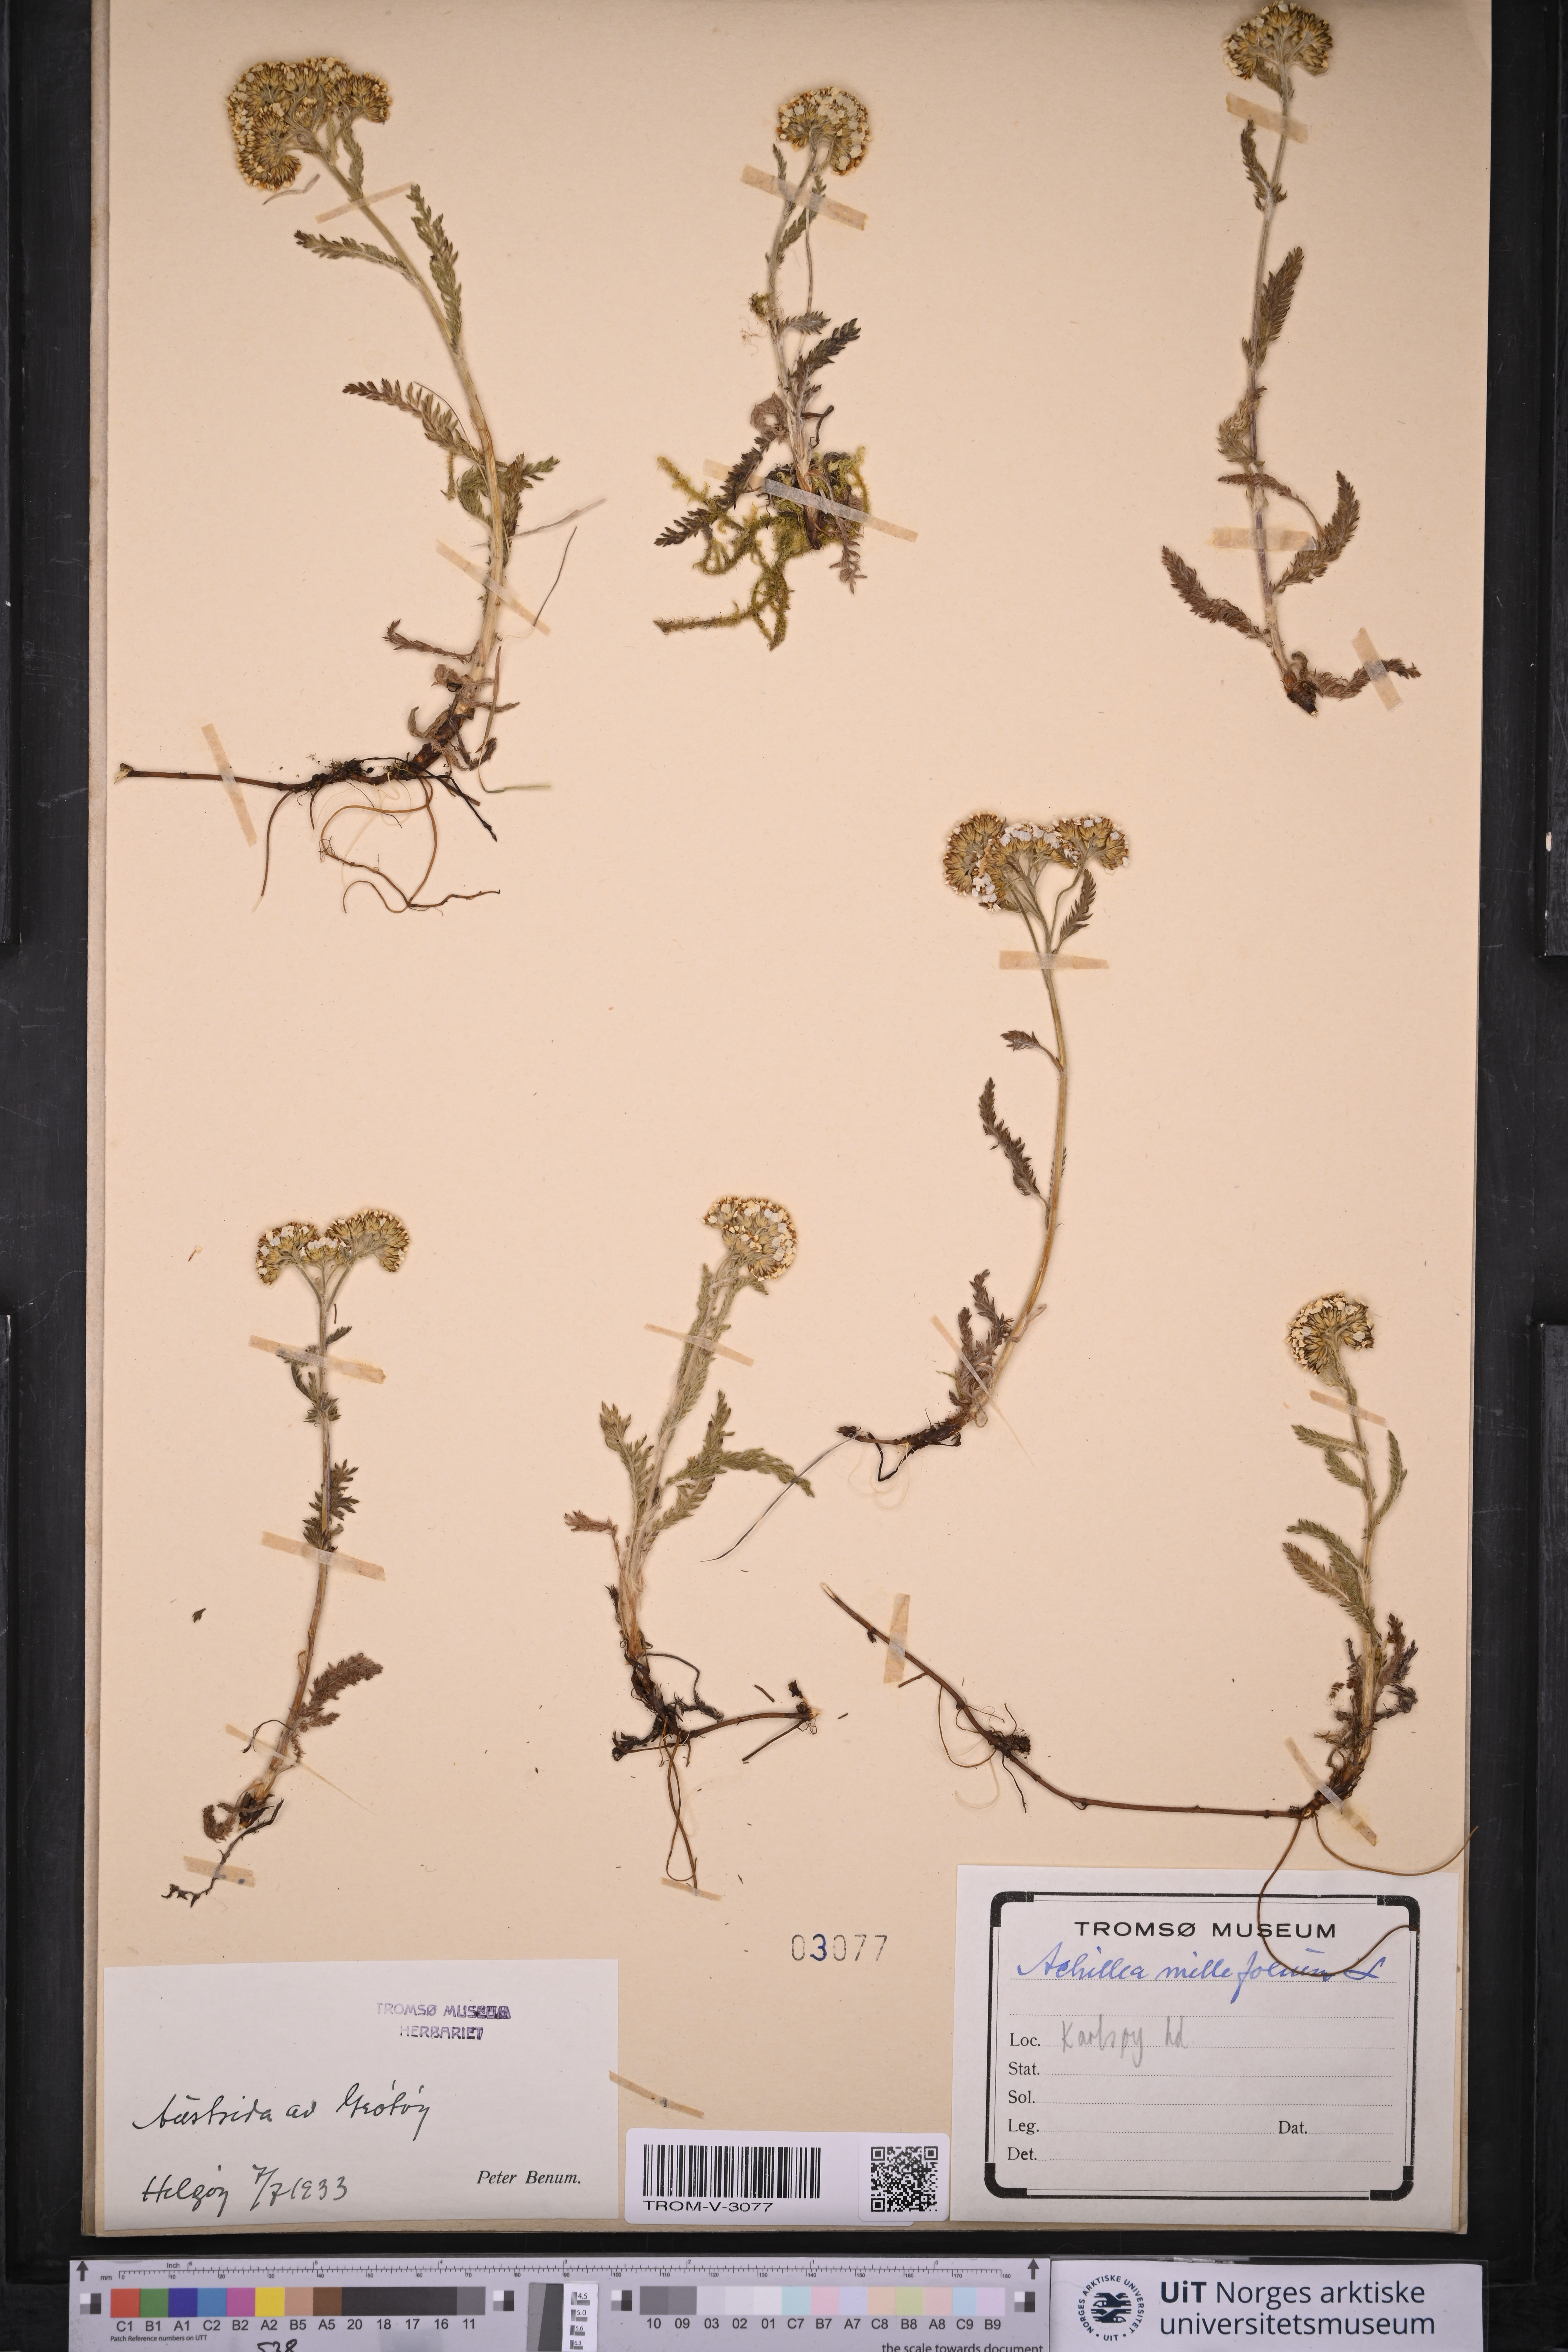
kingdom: Plantae
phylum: Tracheophyta
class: Magnoliopsida
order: Asterales
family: Asteraceae
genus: Achillea
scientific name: Achillea millefolium
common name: Yarrow
